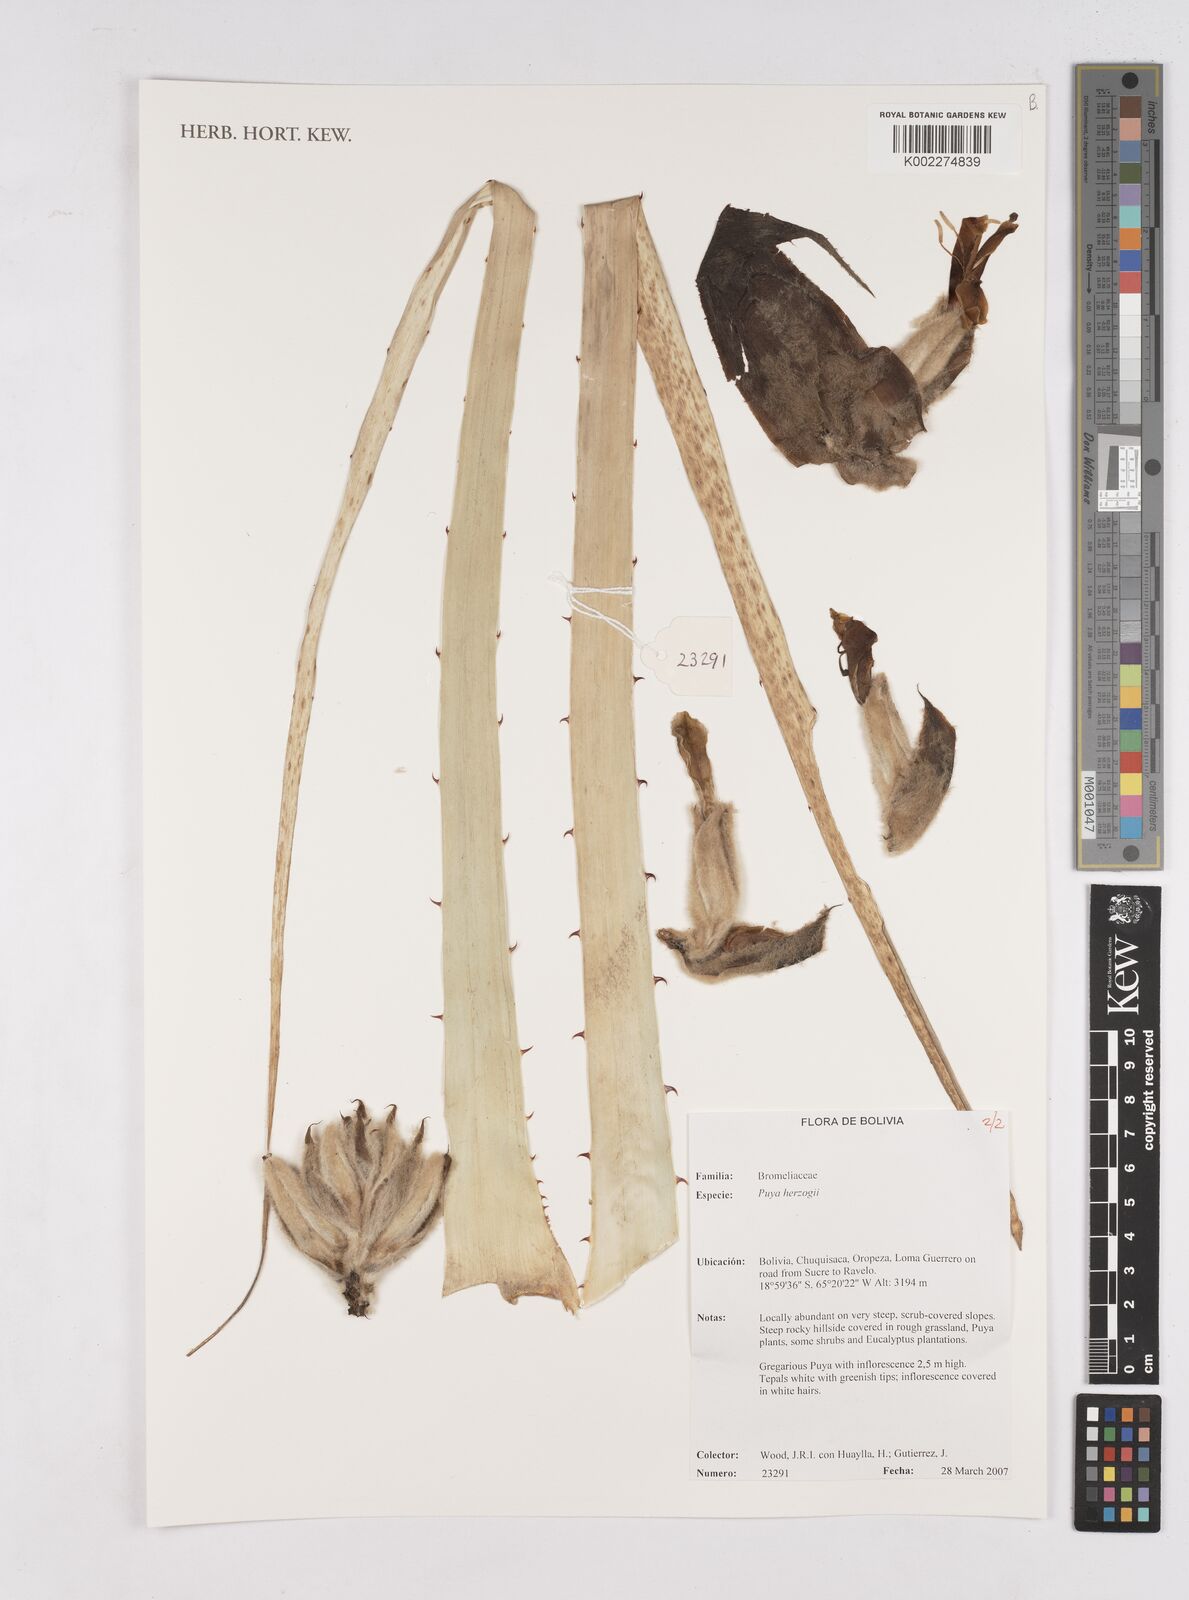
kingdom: Plantae
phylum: Tracheophyta
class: Liliopsida
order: Poales
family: Bromeliaceae
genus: Puya
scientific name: Puya vestita
